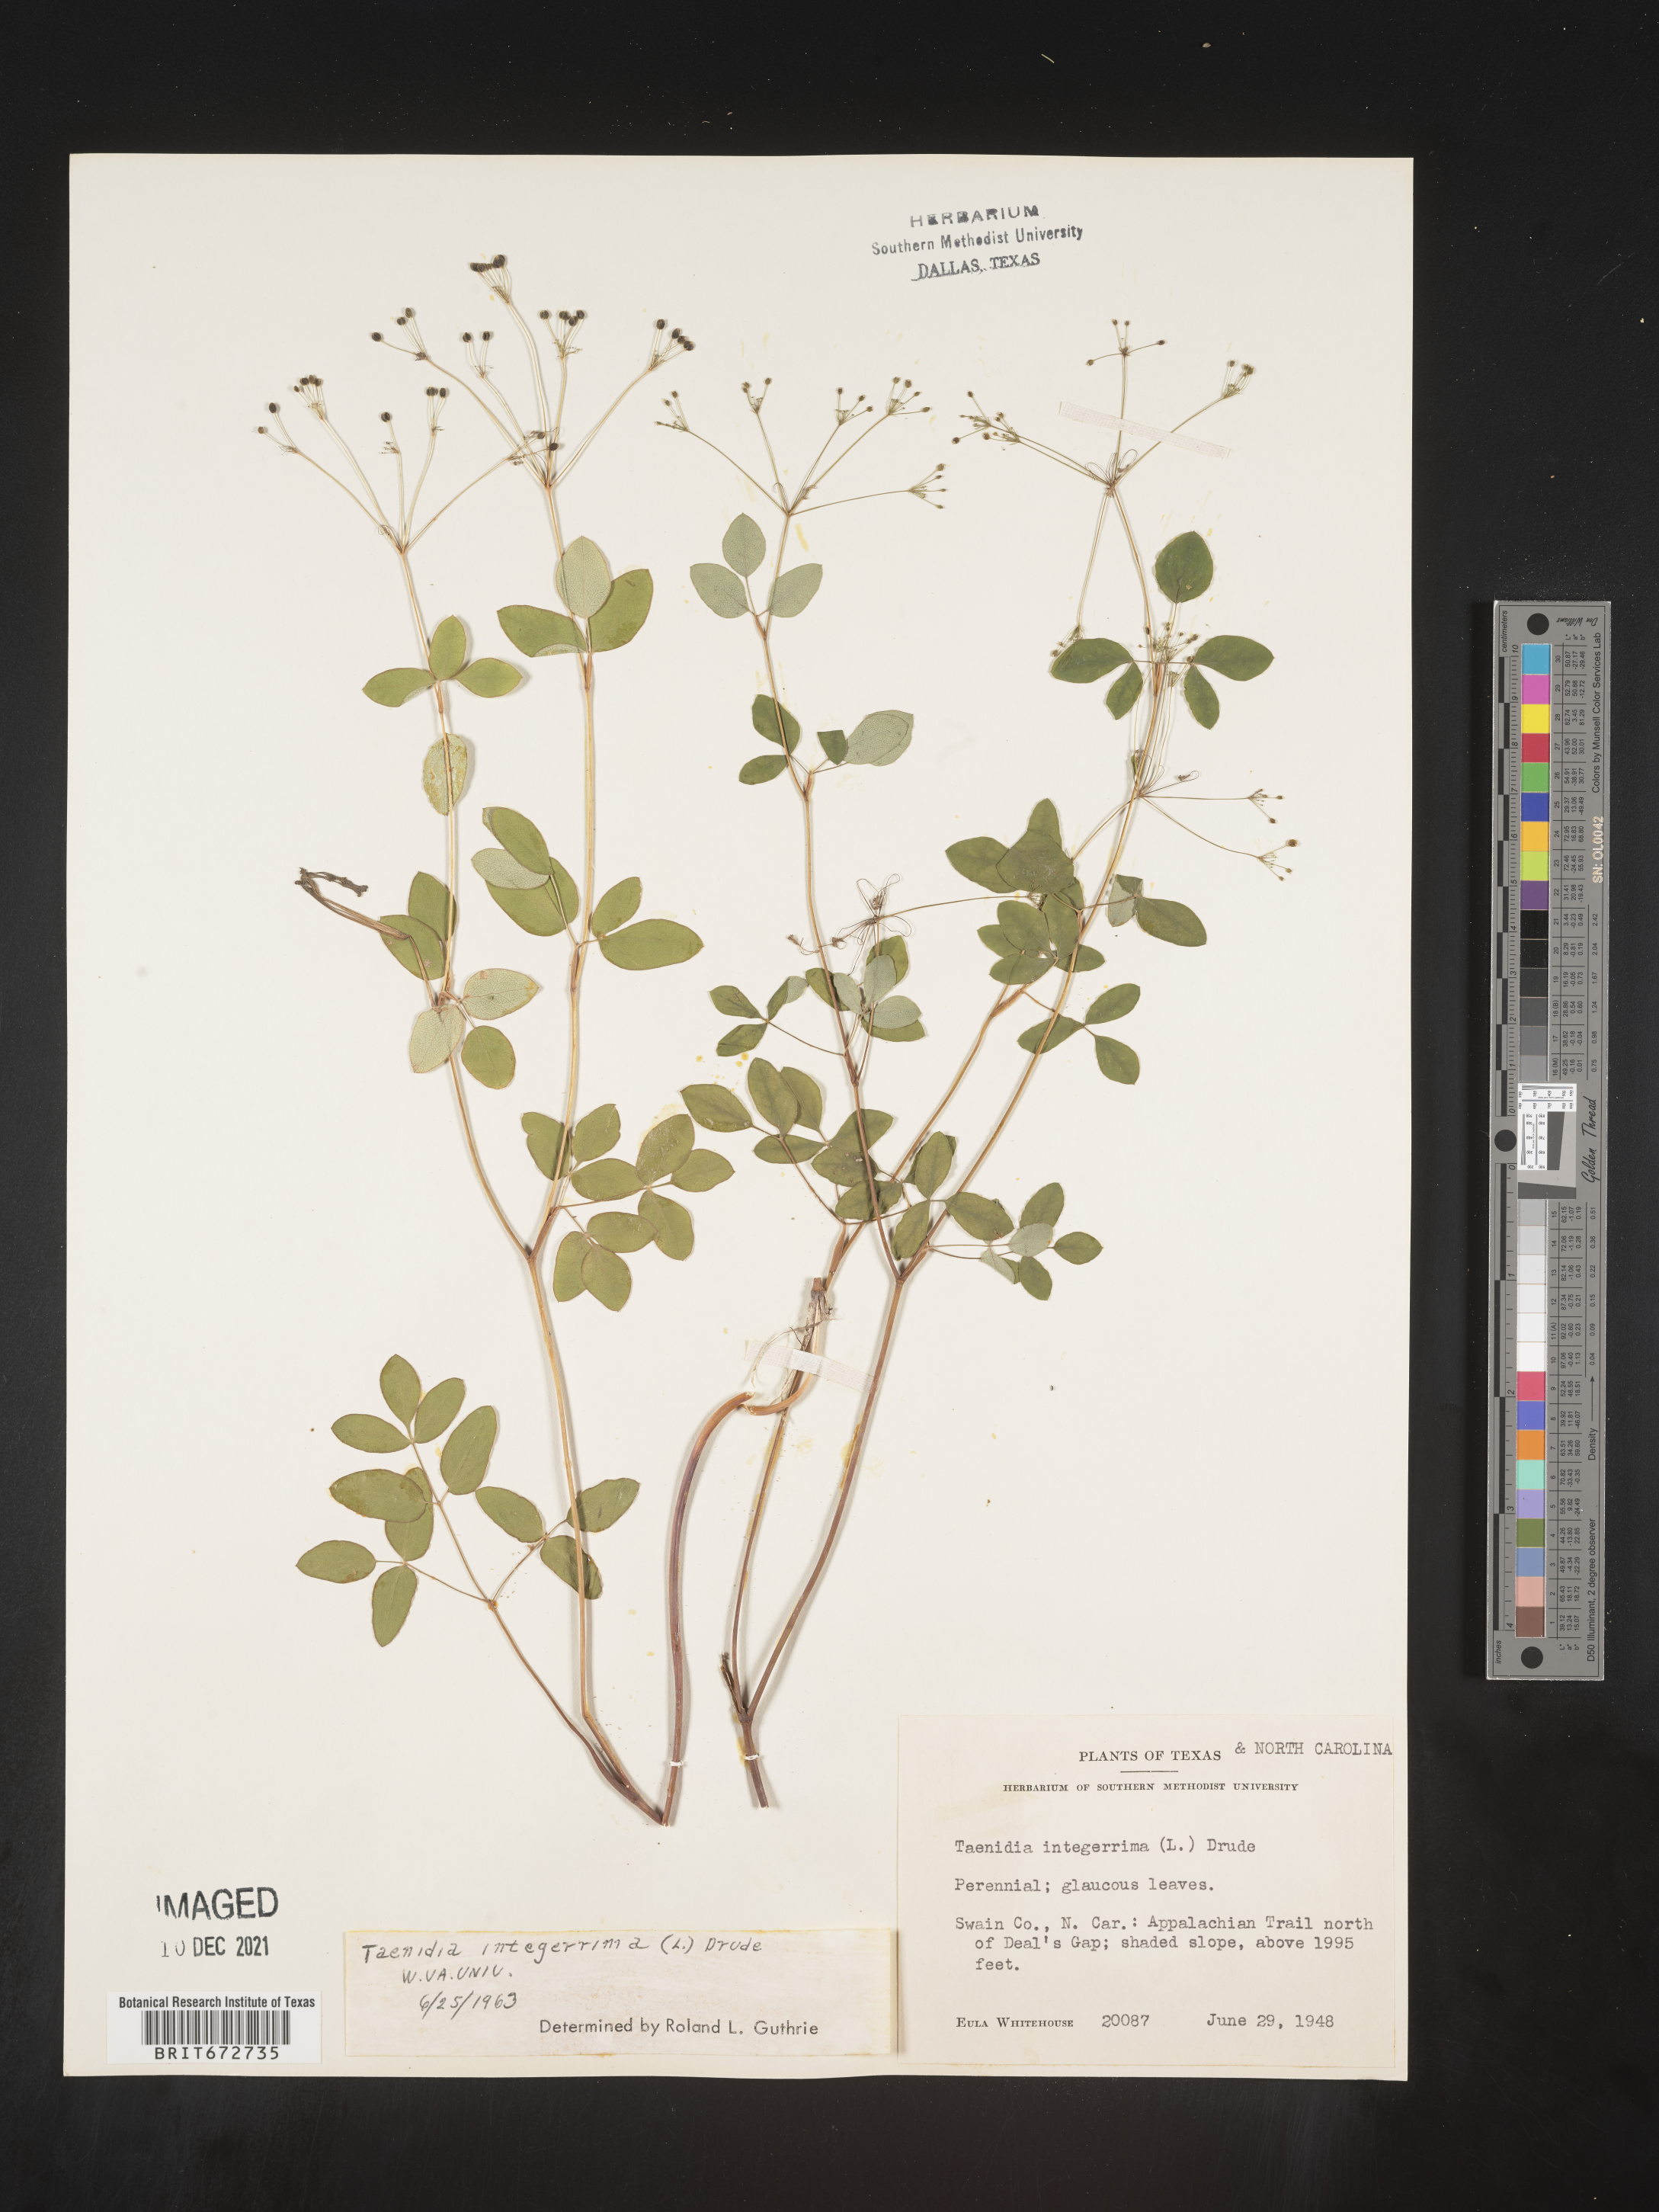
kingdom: Plantae
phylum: Tracheophyta
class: Magnoliopsida
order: Apiales
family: Apiaceae
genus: Taenidia
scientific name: Taenidia
